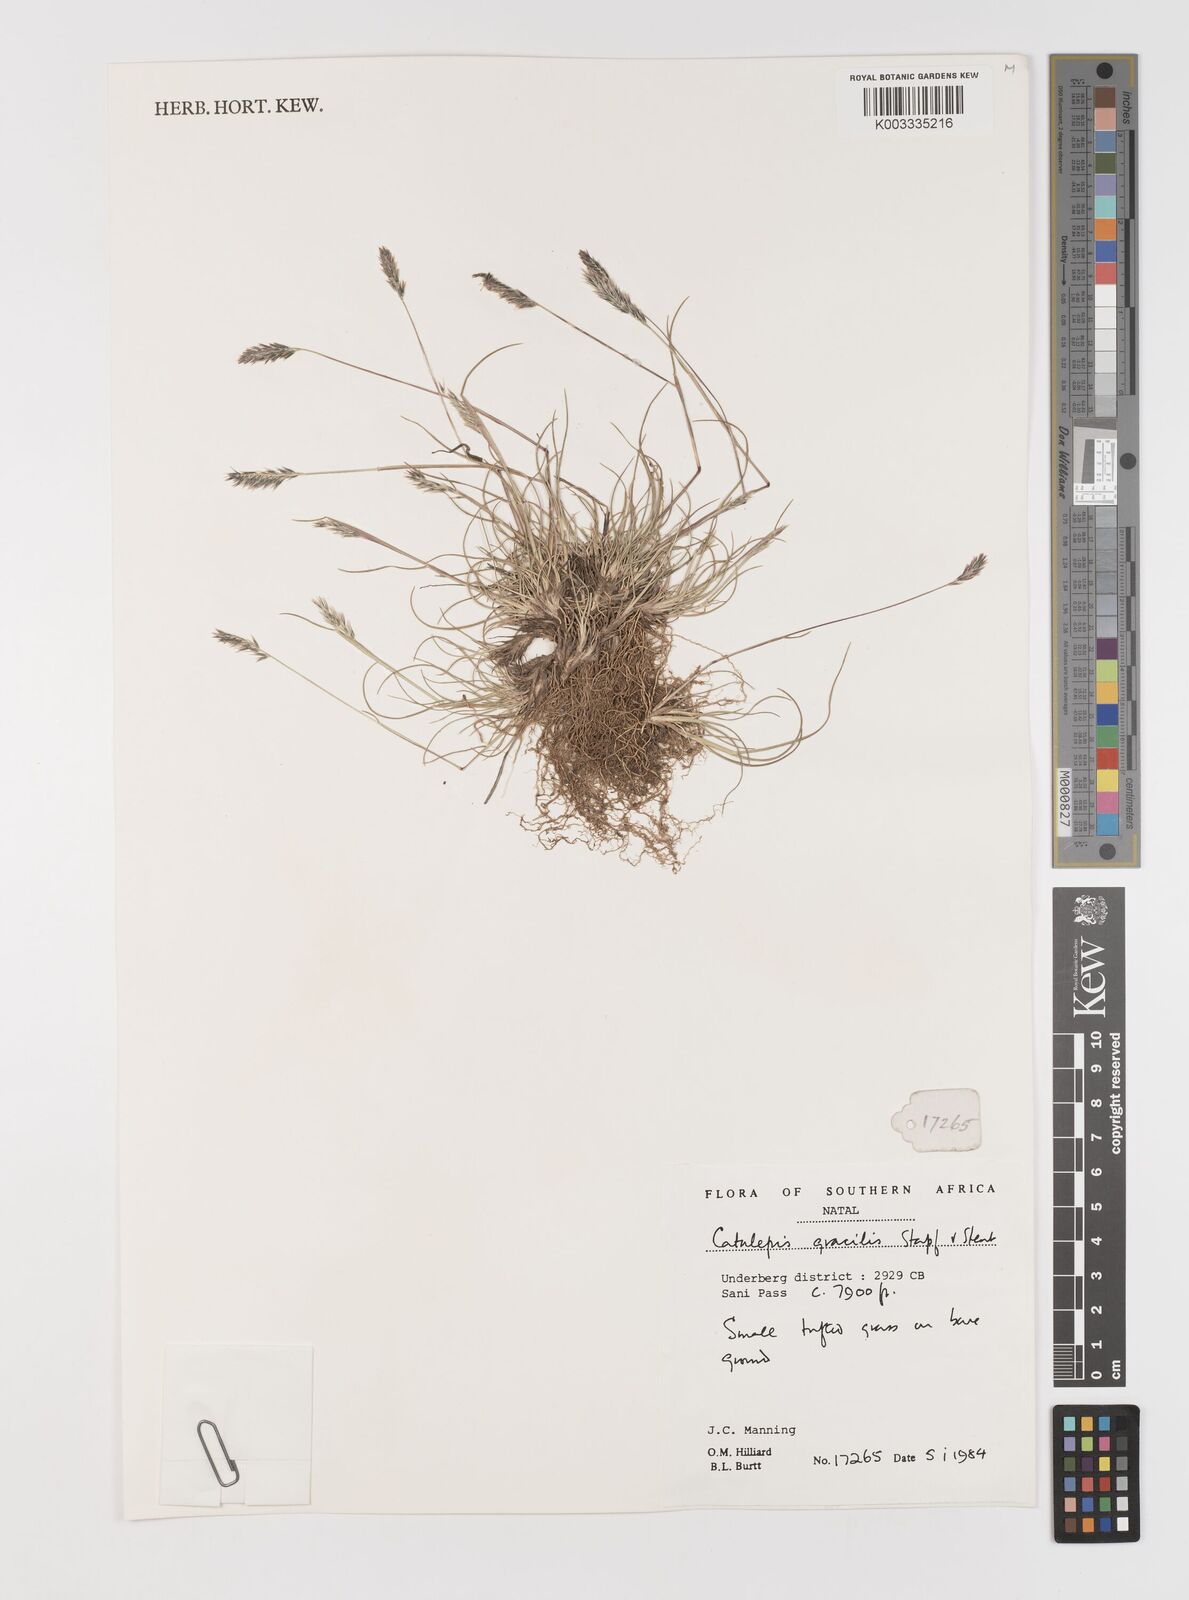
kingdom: Plantae
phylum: Tracheophyta
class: Liliopsida
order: Poales
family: Poaceae
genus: Catalepis
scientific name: Catalepis gracilis
